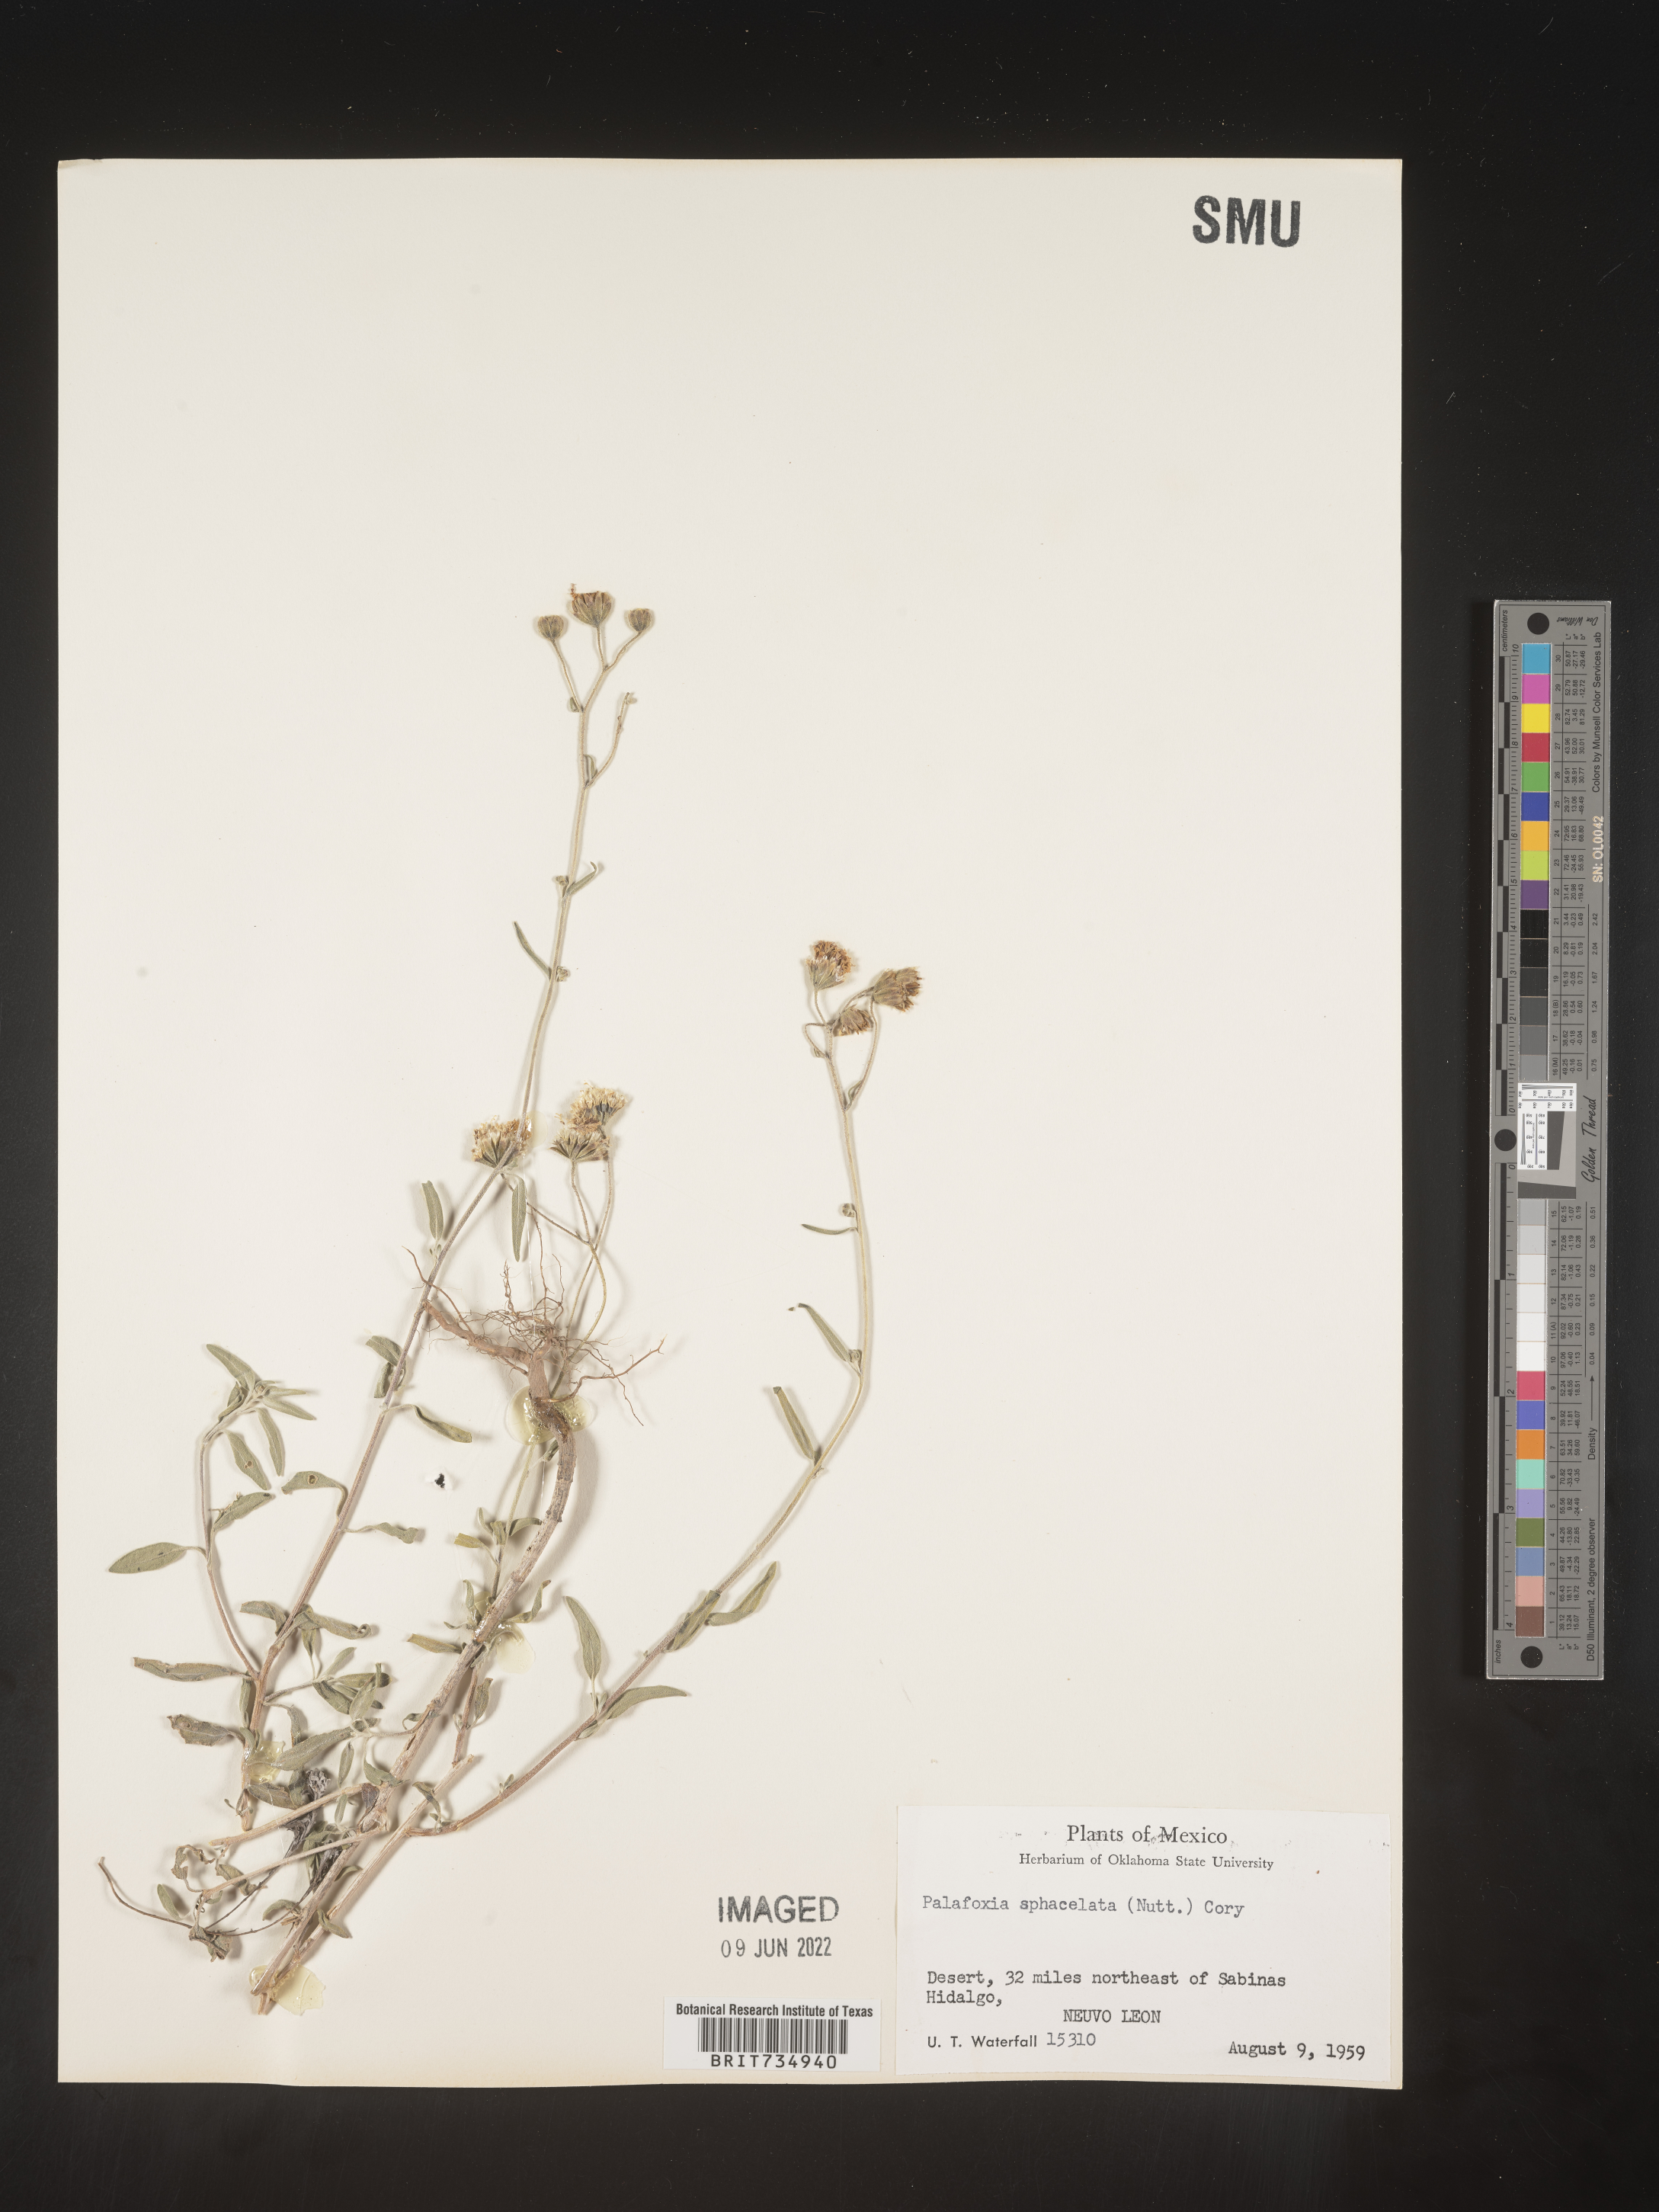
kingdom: Plantae
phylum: Tracheophyta
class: Magnoliopsida
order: Asterales
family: Asteraceae
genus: Palafoxia
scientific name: Palafoxia
